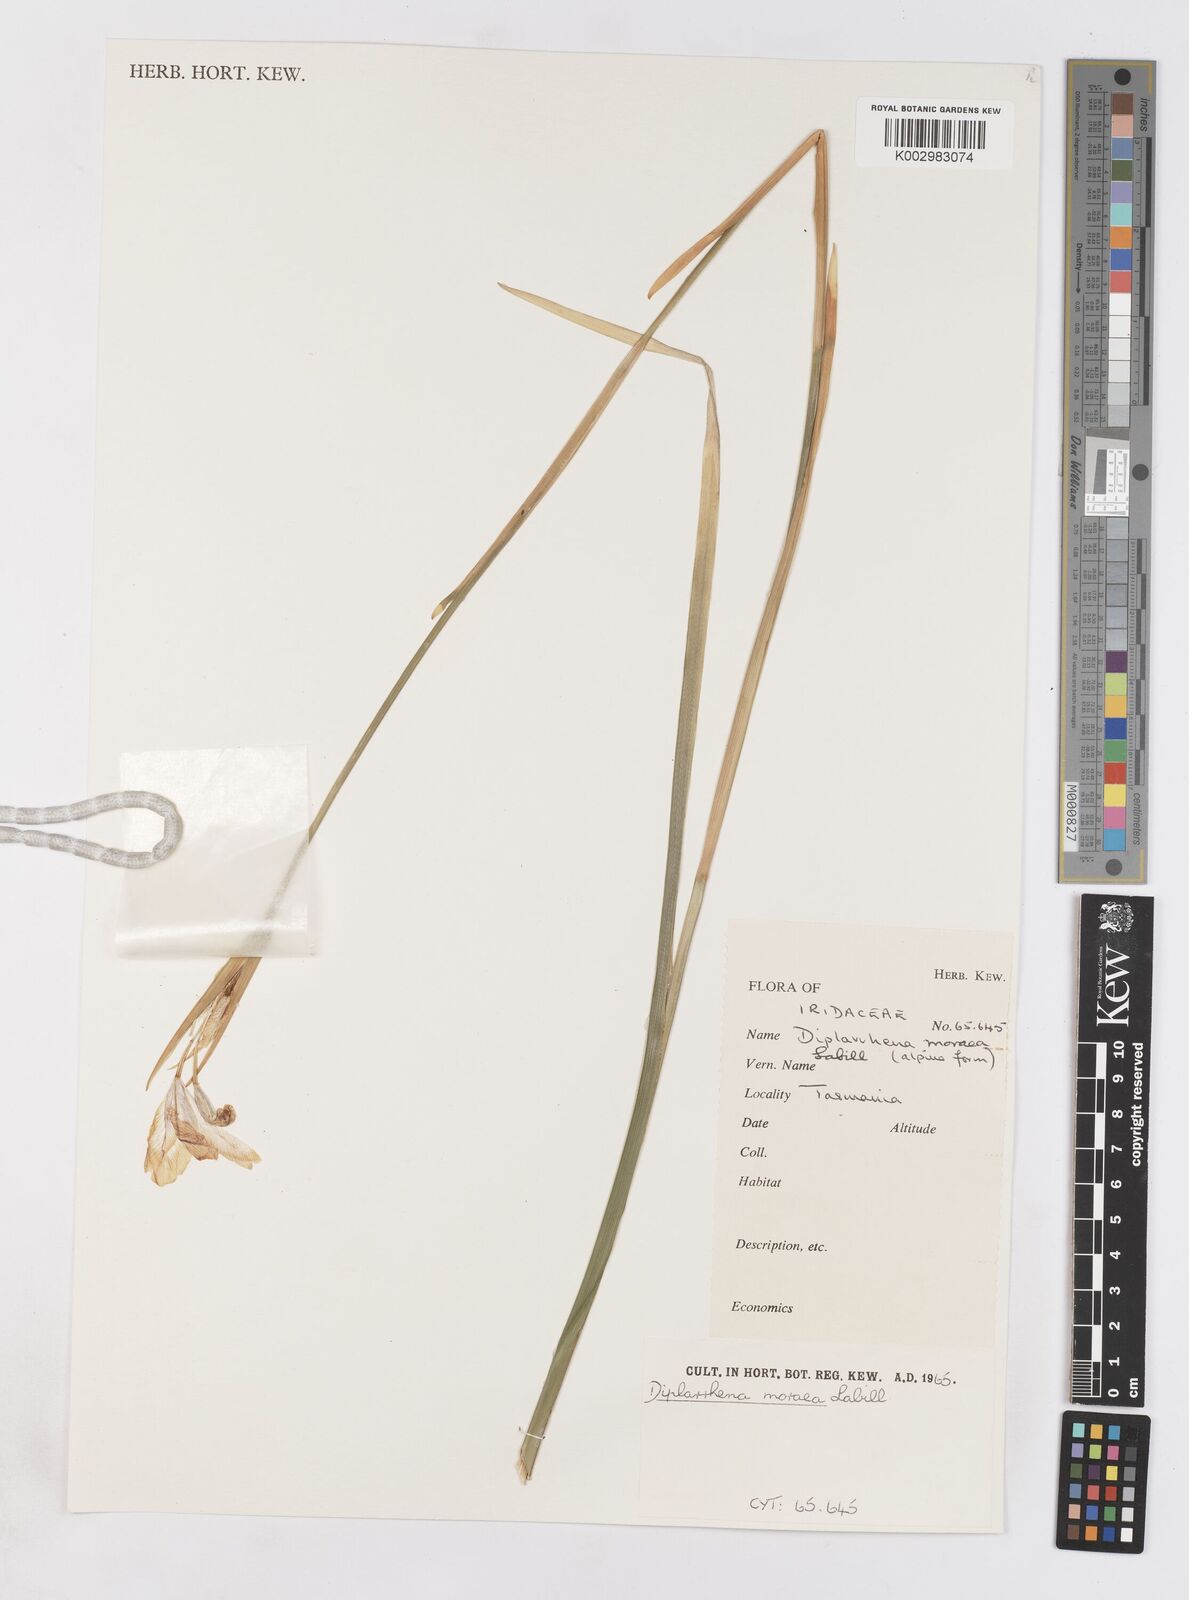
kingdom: Plantae
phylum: Tracheophyta
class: Liliopsida
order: Asparagales
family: Iridaceae
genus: Diplarrena
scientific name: Diplarrena moraea
